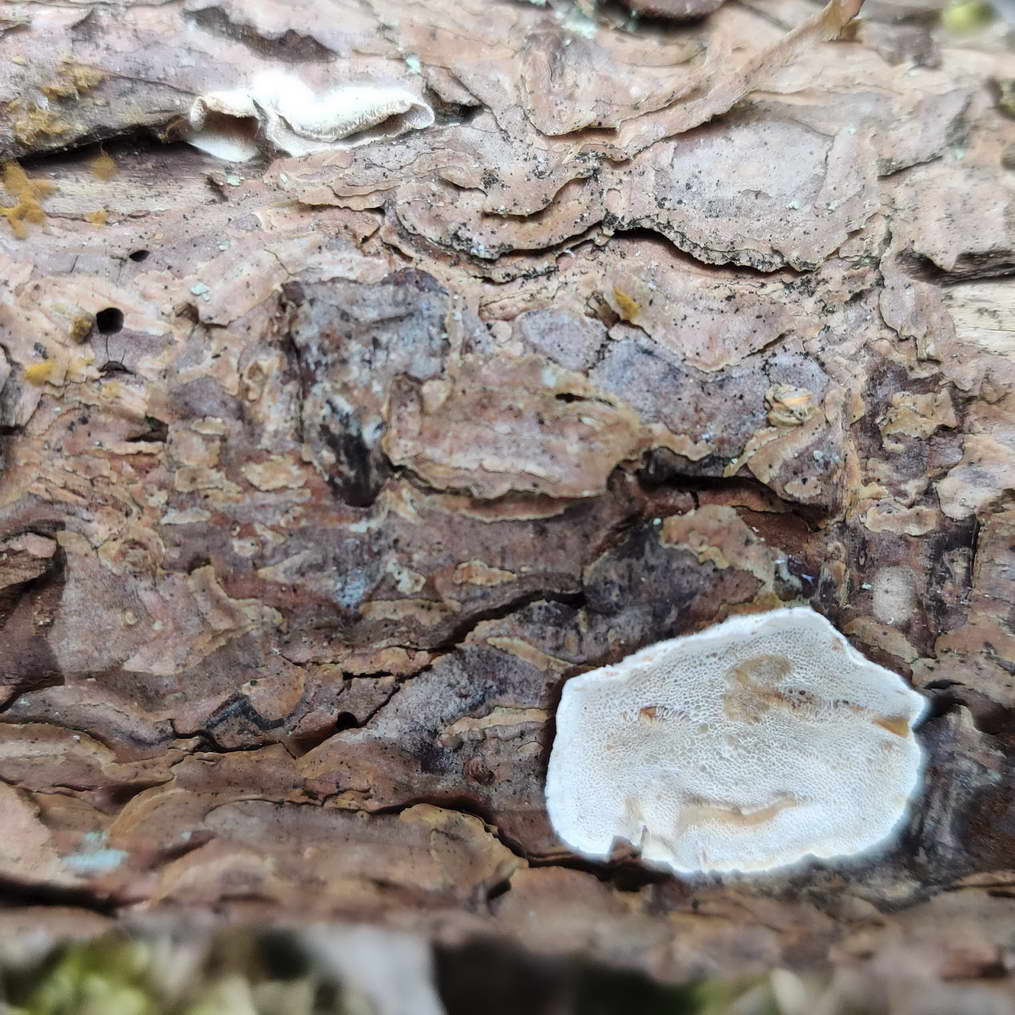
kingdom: Fungi
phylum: Basidiomycota
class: Agaricomycetes
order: Polyporales
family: Incrustoporiaceae
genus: Skeletocutis
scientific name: Skeletocutis amorpha
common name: orange krystalporesvamp
